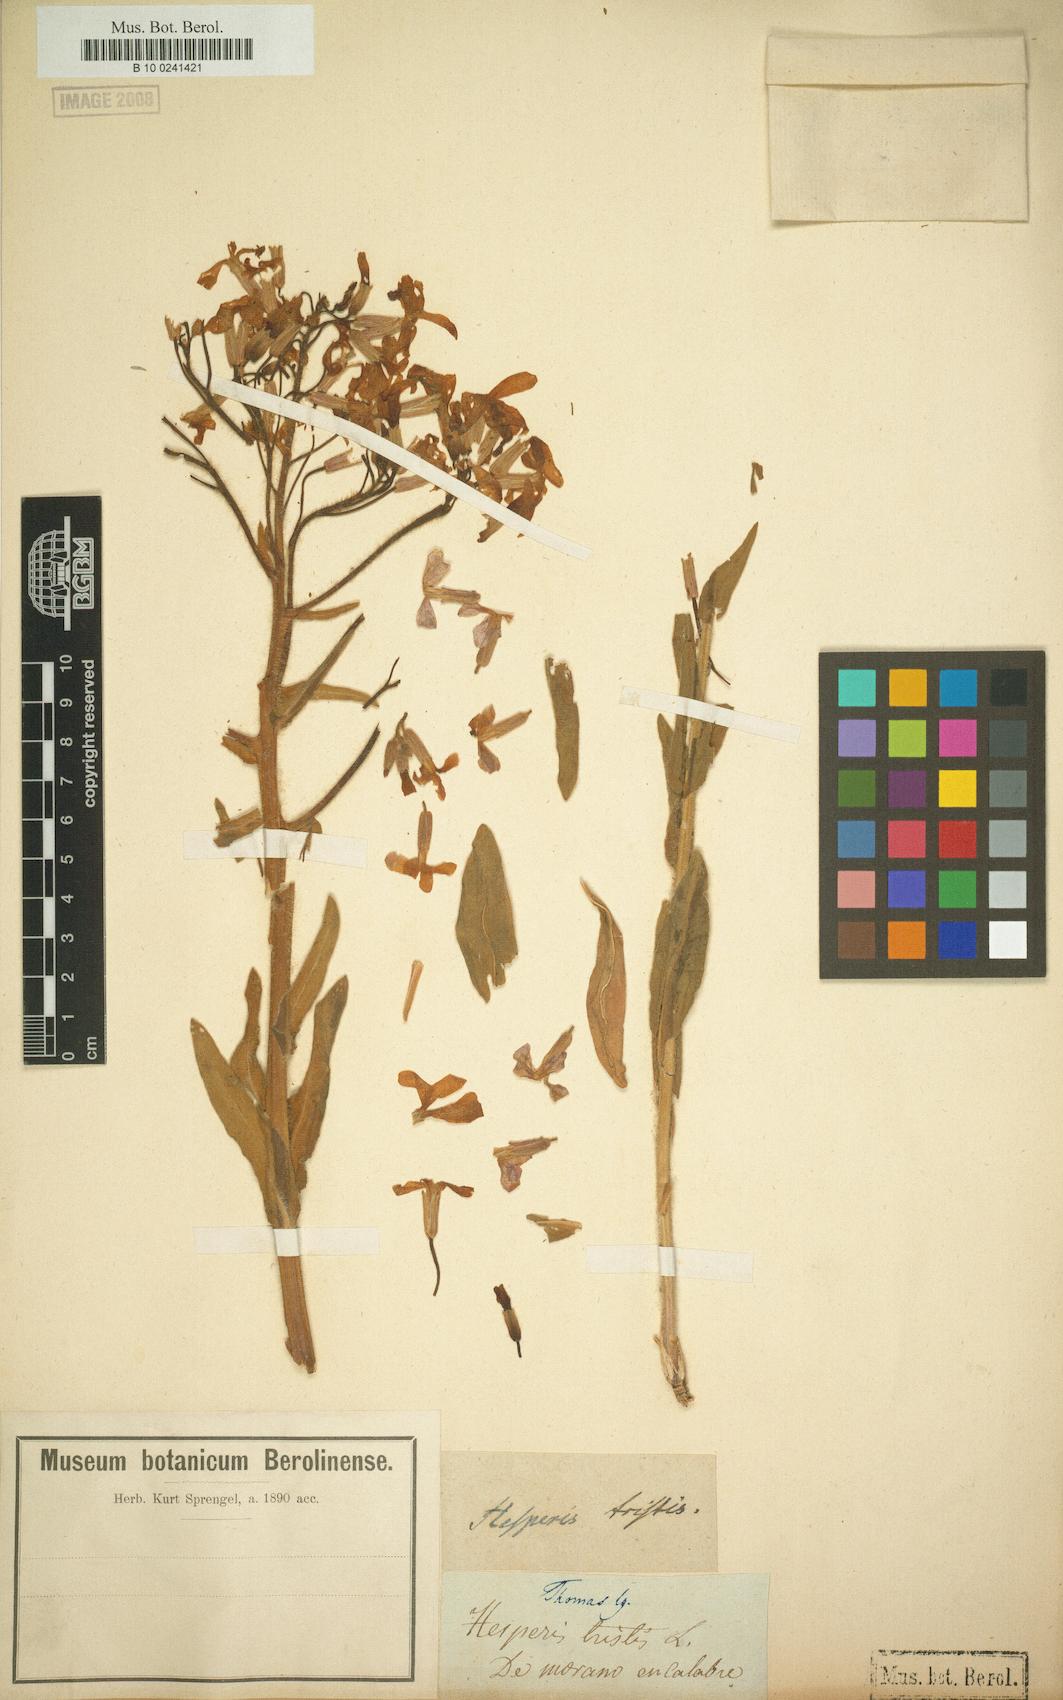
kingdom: Plantae
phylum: Tracheophyta
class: Magnoliopsida
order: Brassicales
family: Brassicaceae
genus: Hesperis
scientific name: Hesperis tristis
